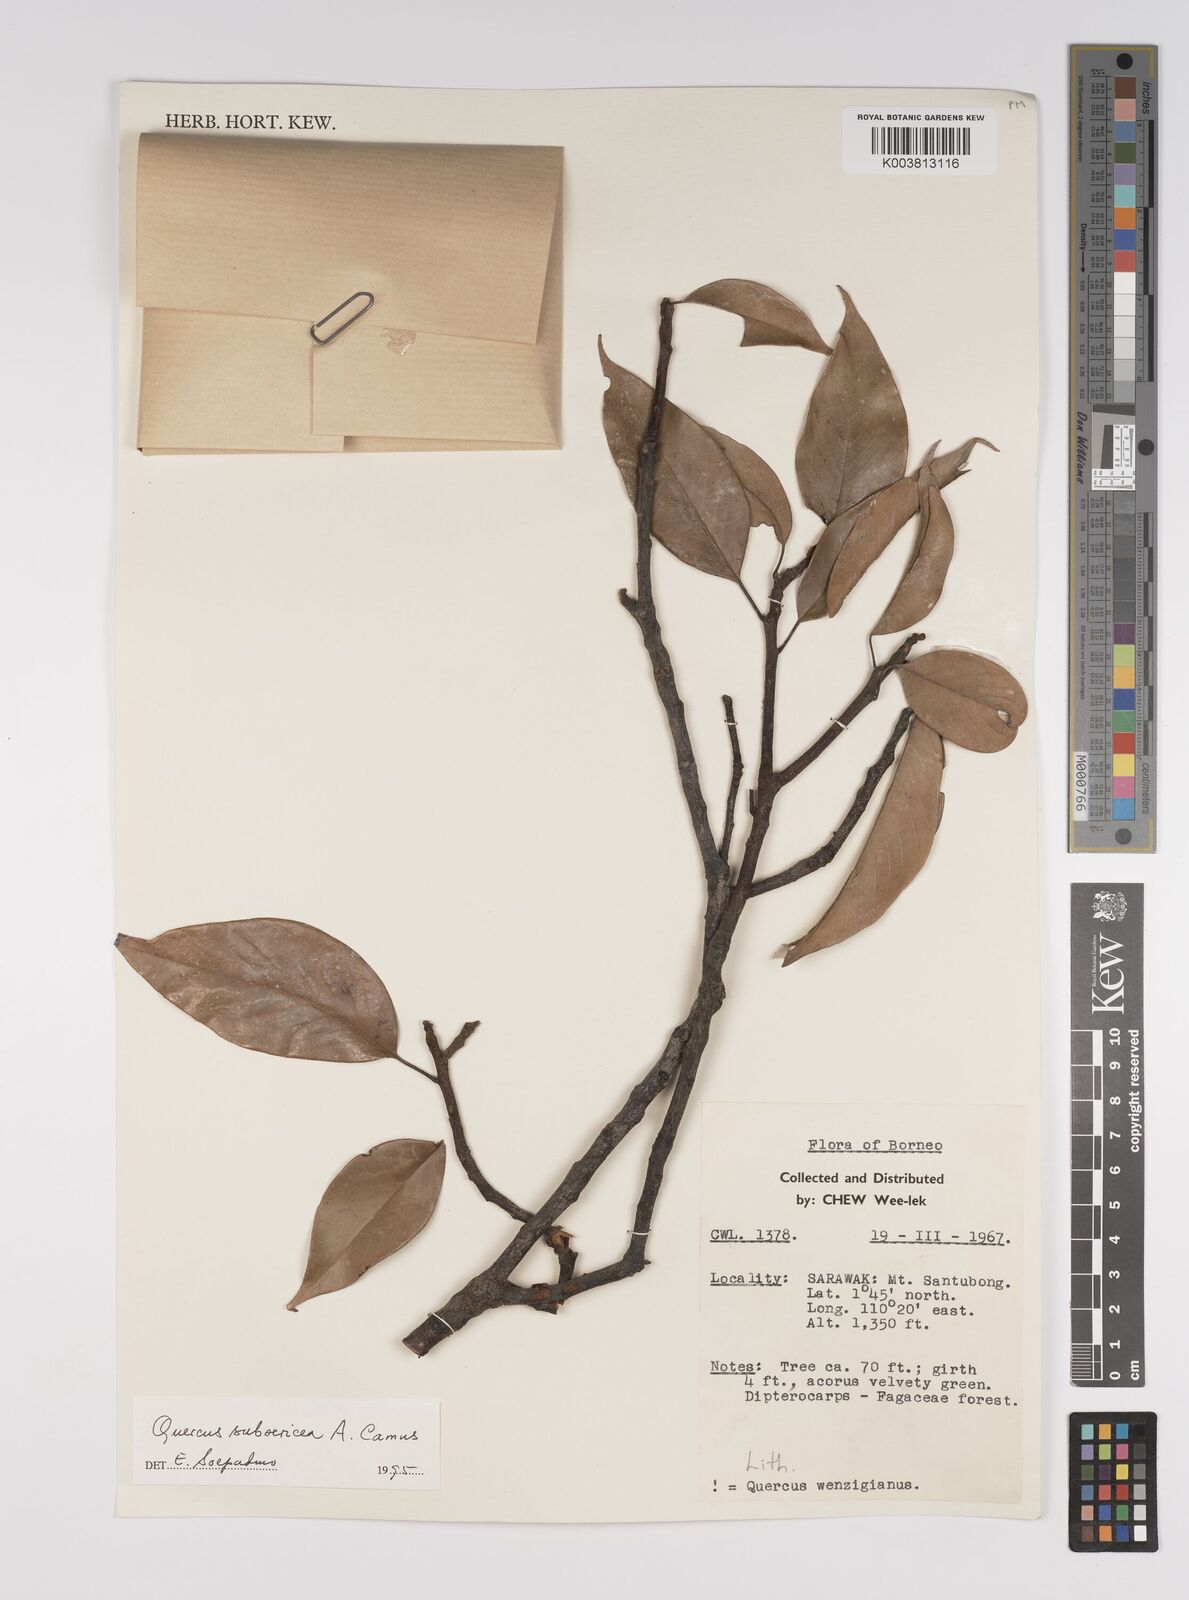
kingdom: Plantae
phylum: Tracheophyta
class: Magnoliopsida
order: Fagales
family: Fagaceae
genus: Quercus
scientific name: Quercus subsericea
